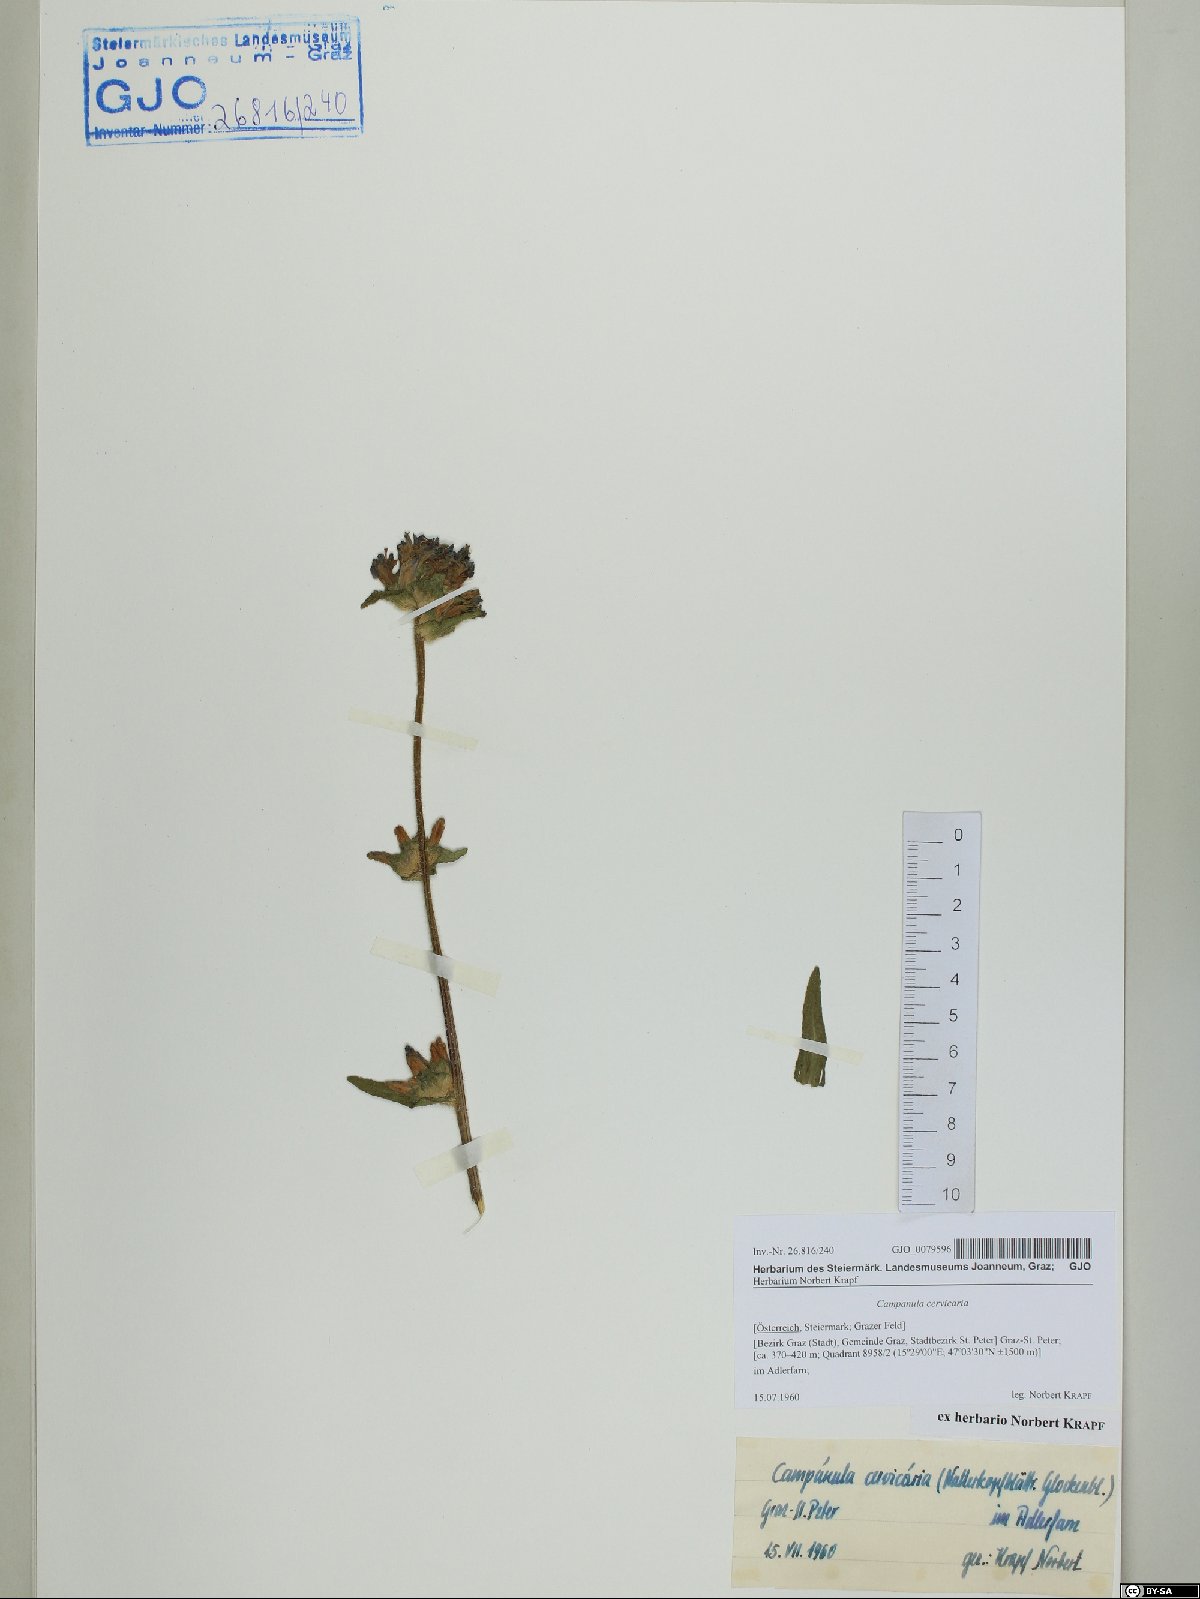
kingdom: Plantae
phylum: Tracheophyta
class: Magnoliopsida
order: Asterales
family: Campanulaceae
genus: Campanula
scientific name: Campanula cervicaria
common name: Bristly bellflower
